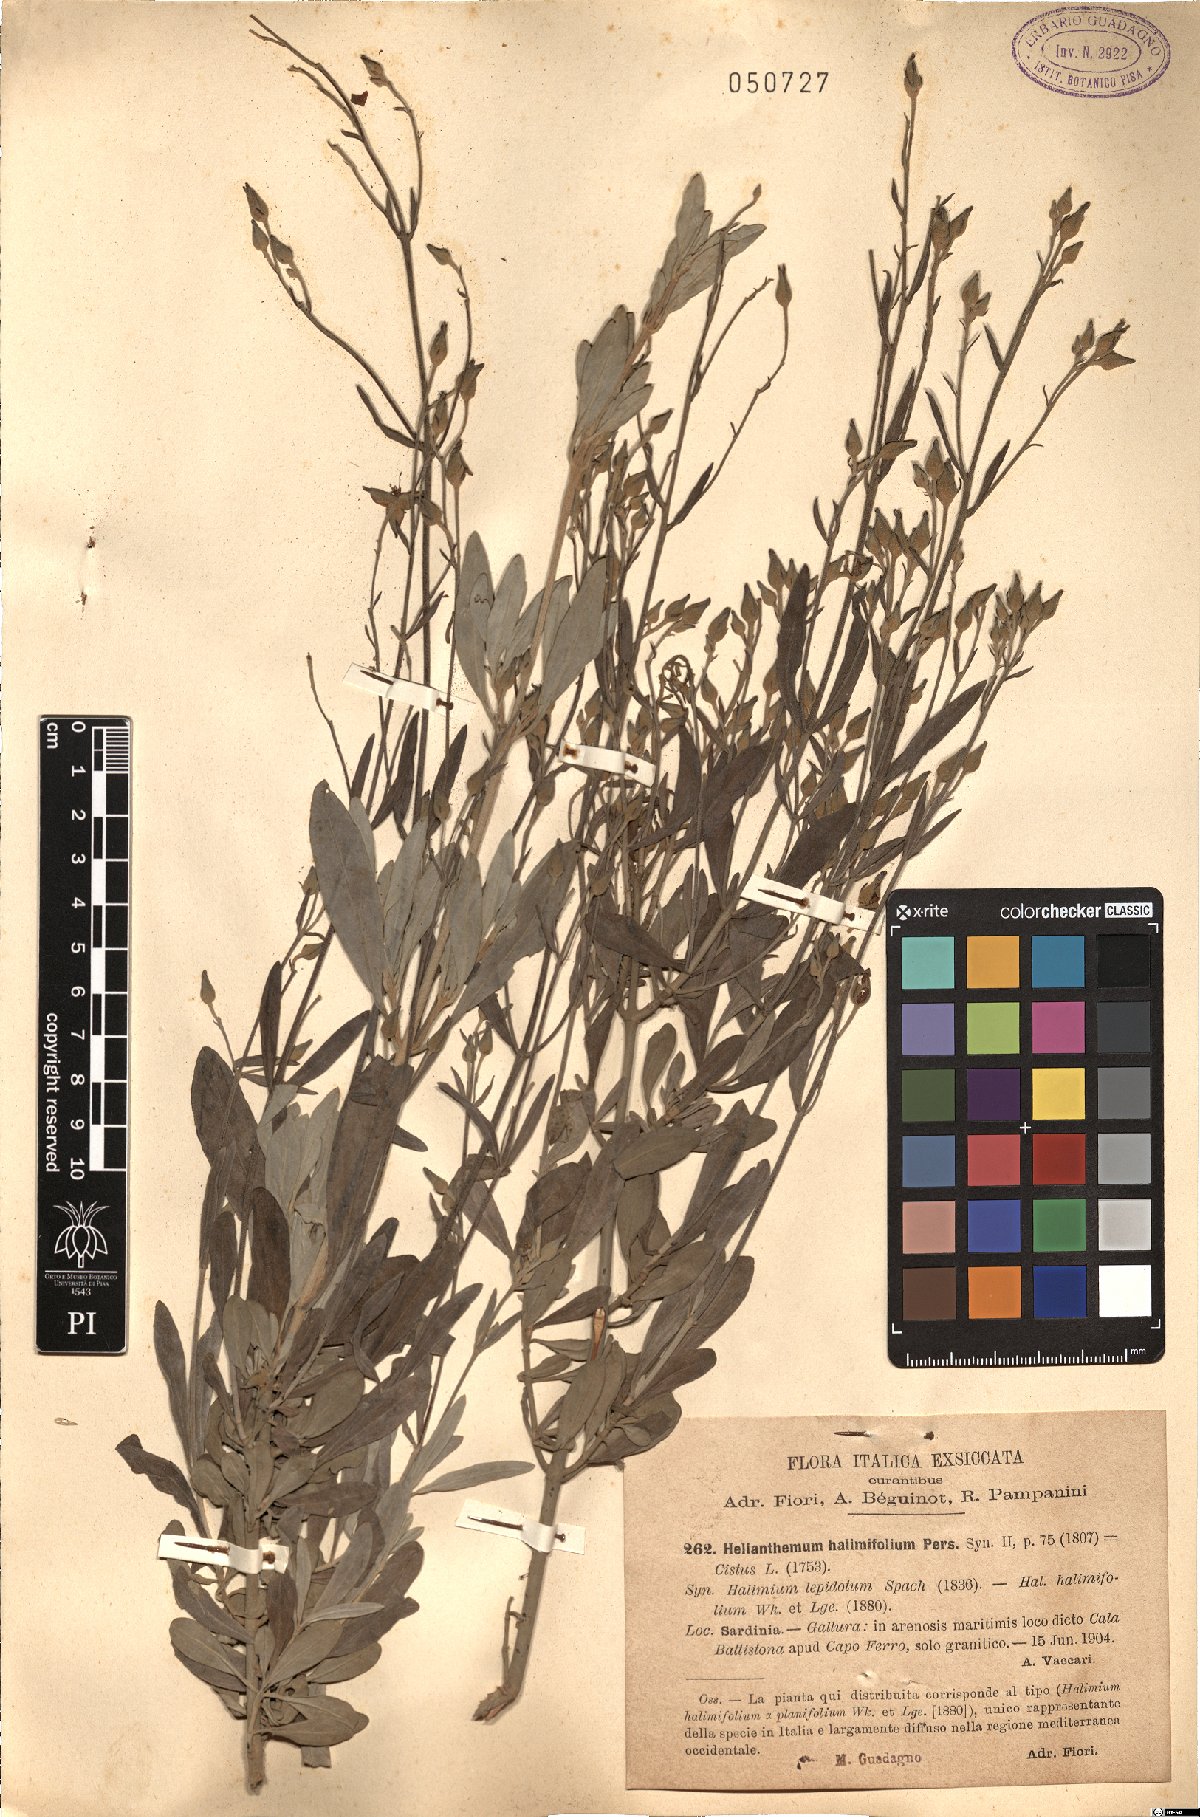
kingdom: Plantae
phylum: Tracheophyta
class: Magnoliopsida
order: Malvales
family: Cistaceae
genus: Halimium
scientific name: Halimium halimifolium
